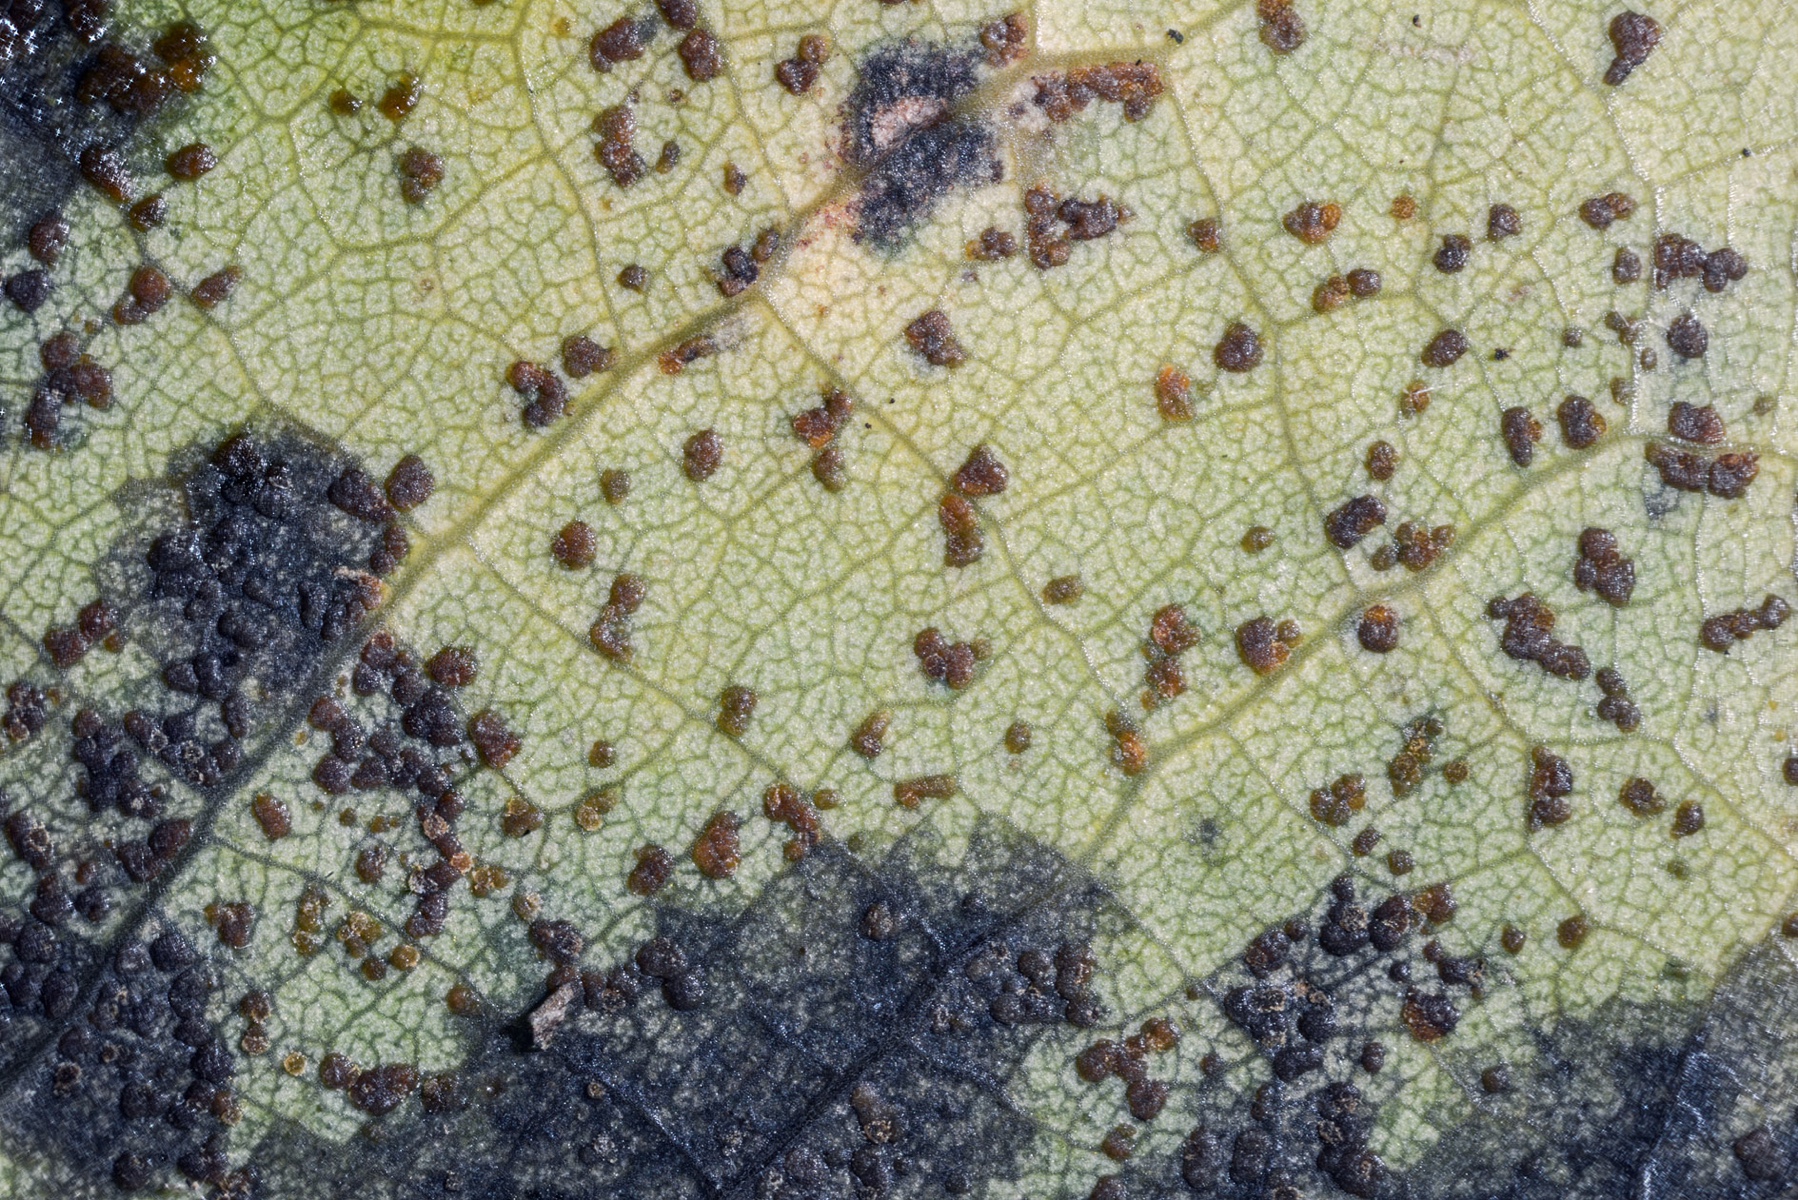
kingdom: Fungi
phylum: Ascomycota
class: Dothideomycetes
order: Venturiales
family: Venturiaceae
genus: Venturia
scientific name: Venturia macularis
